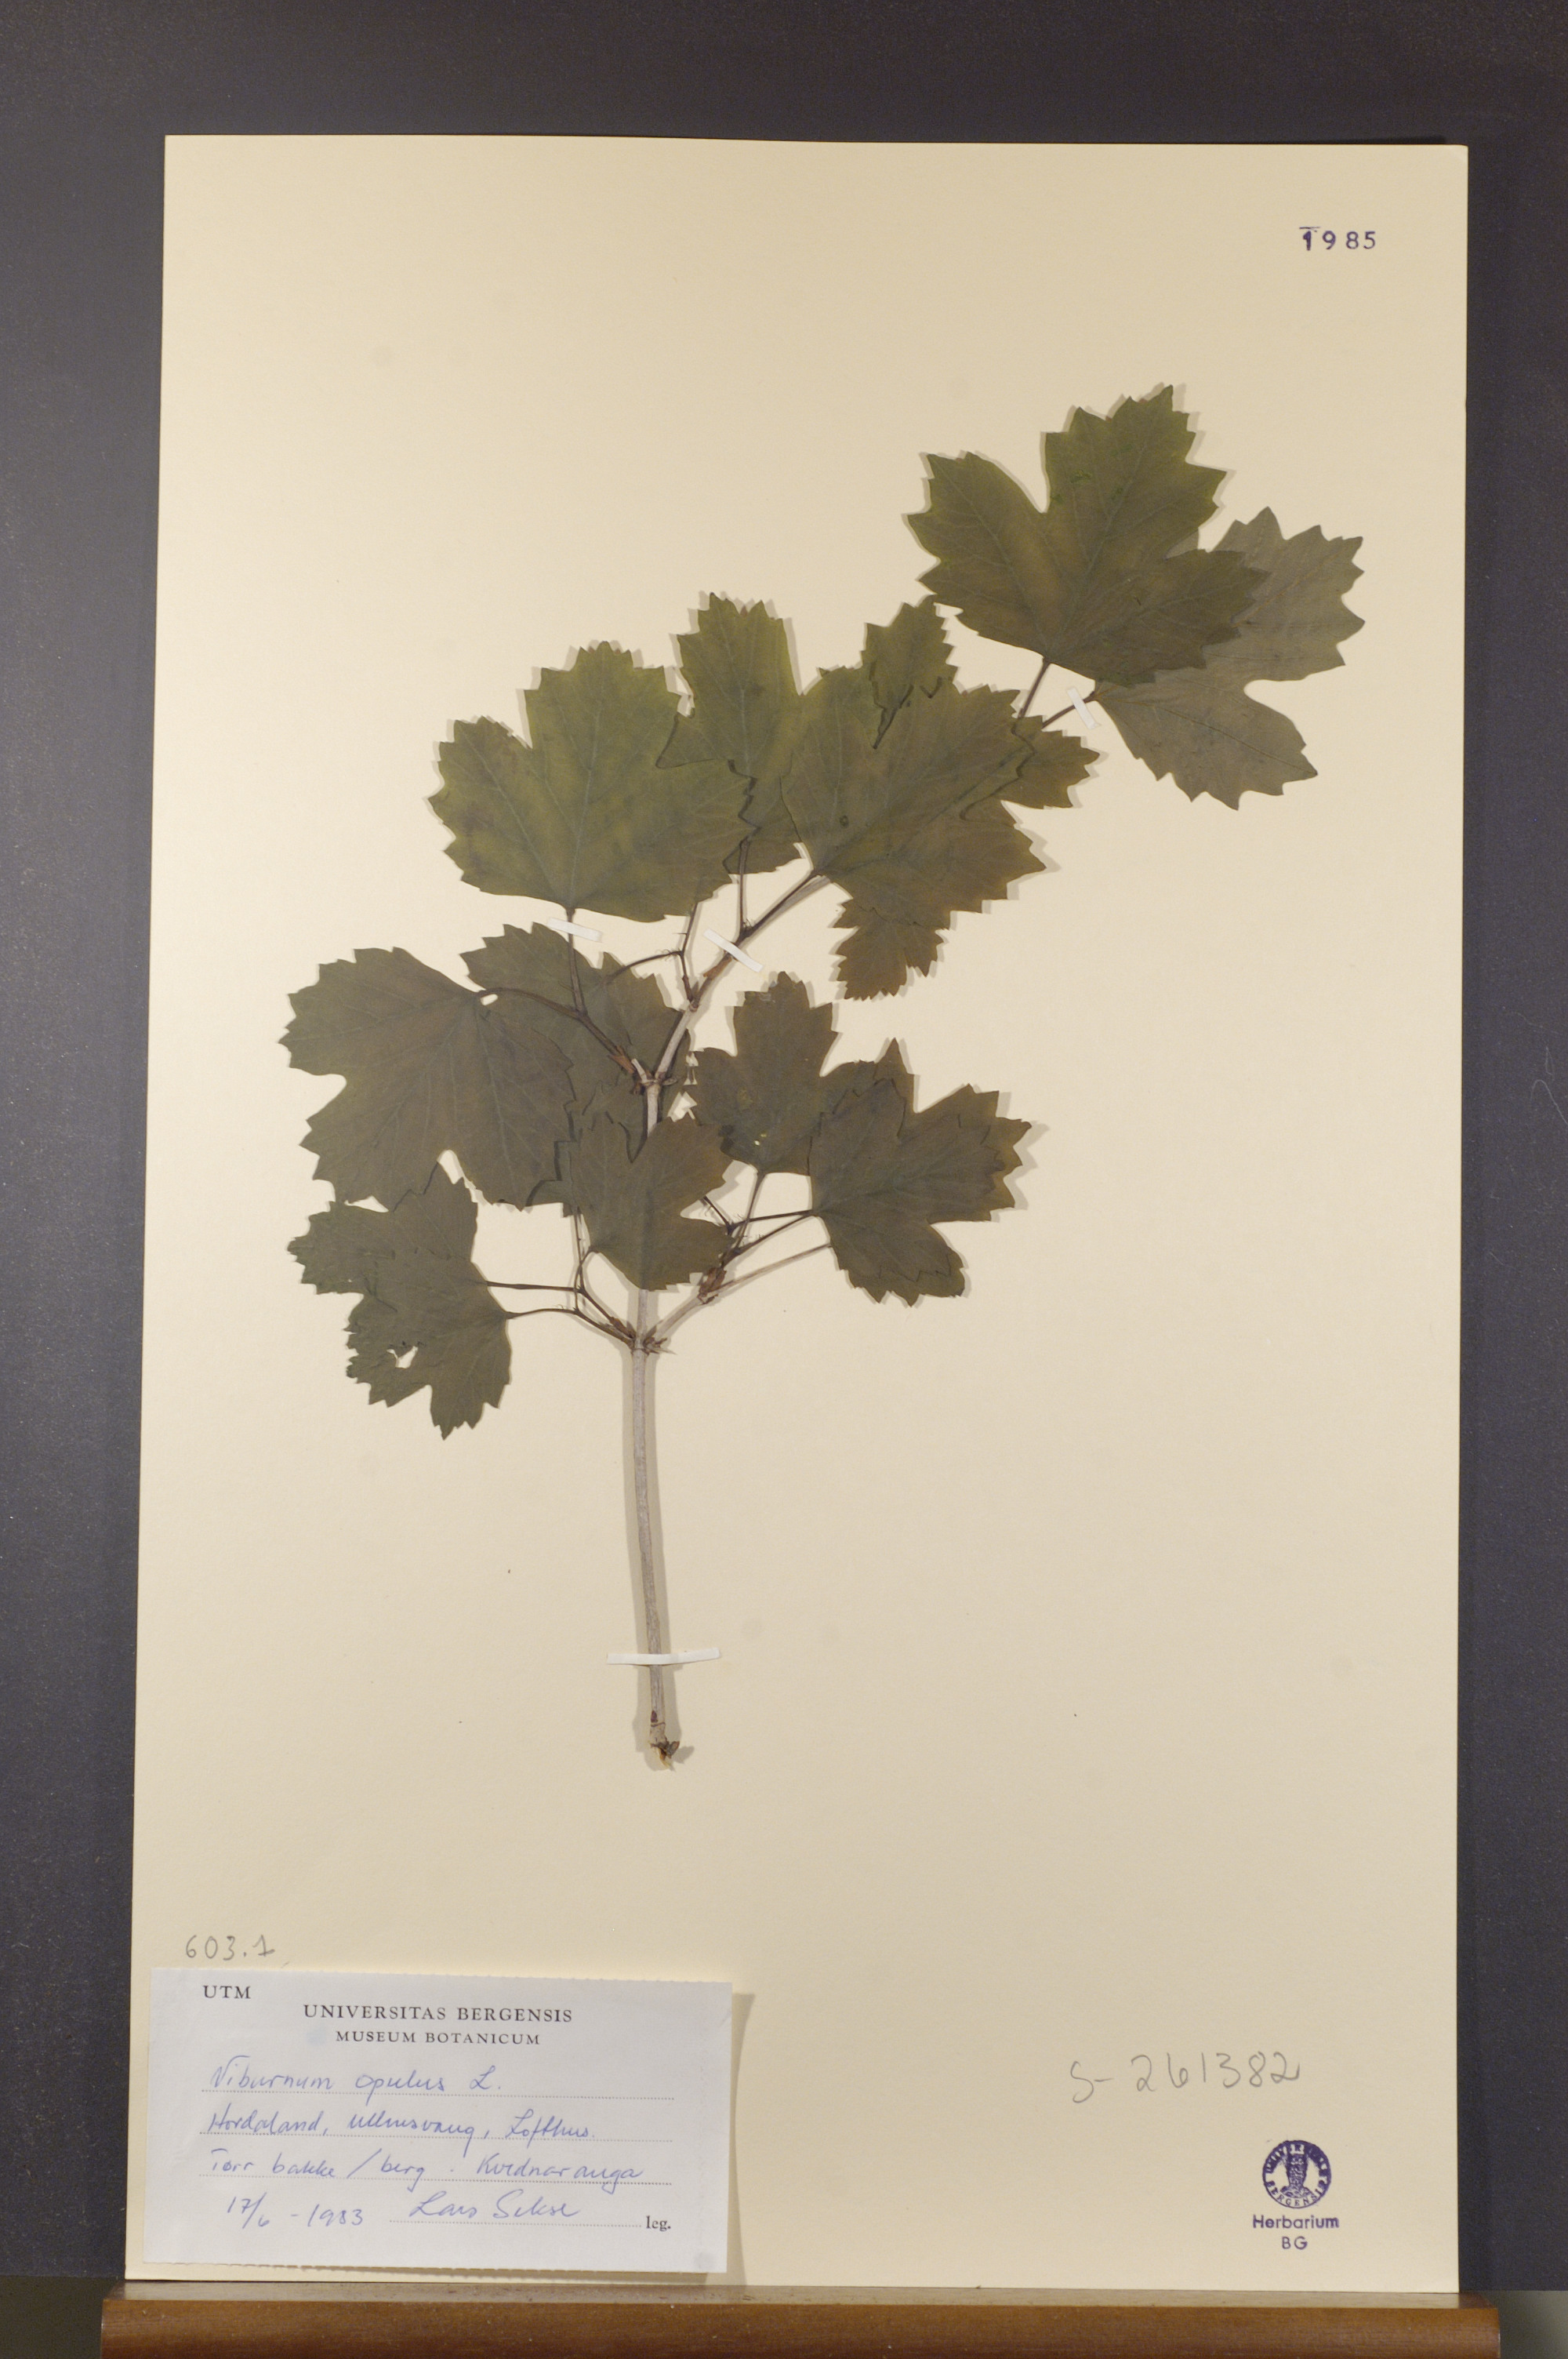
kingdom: Plantae
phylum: Tracheophyta
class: Magnoliopsida
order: Dipsacales
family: Viburnaceae
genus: Viburnum
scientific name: Viburnum opulus
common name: Guelder-rose
